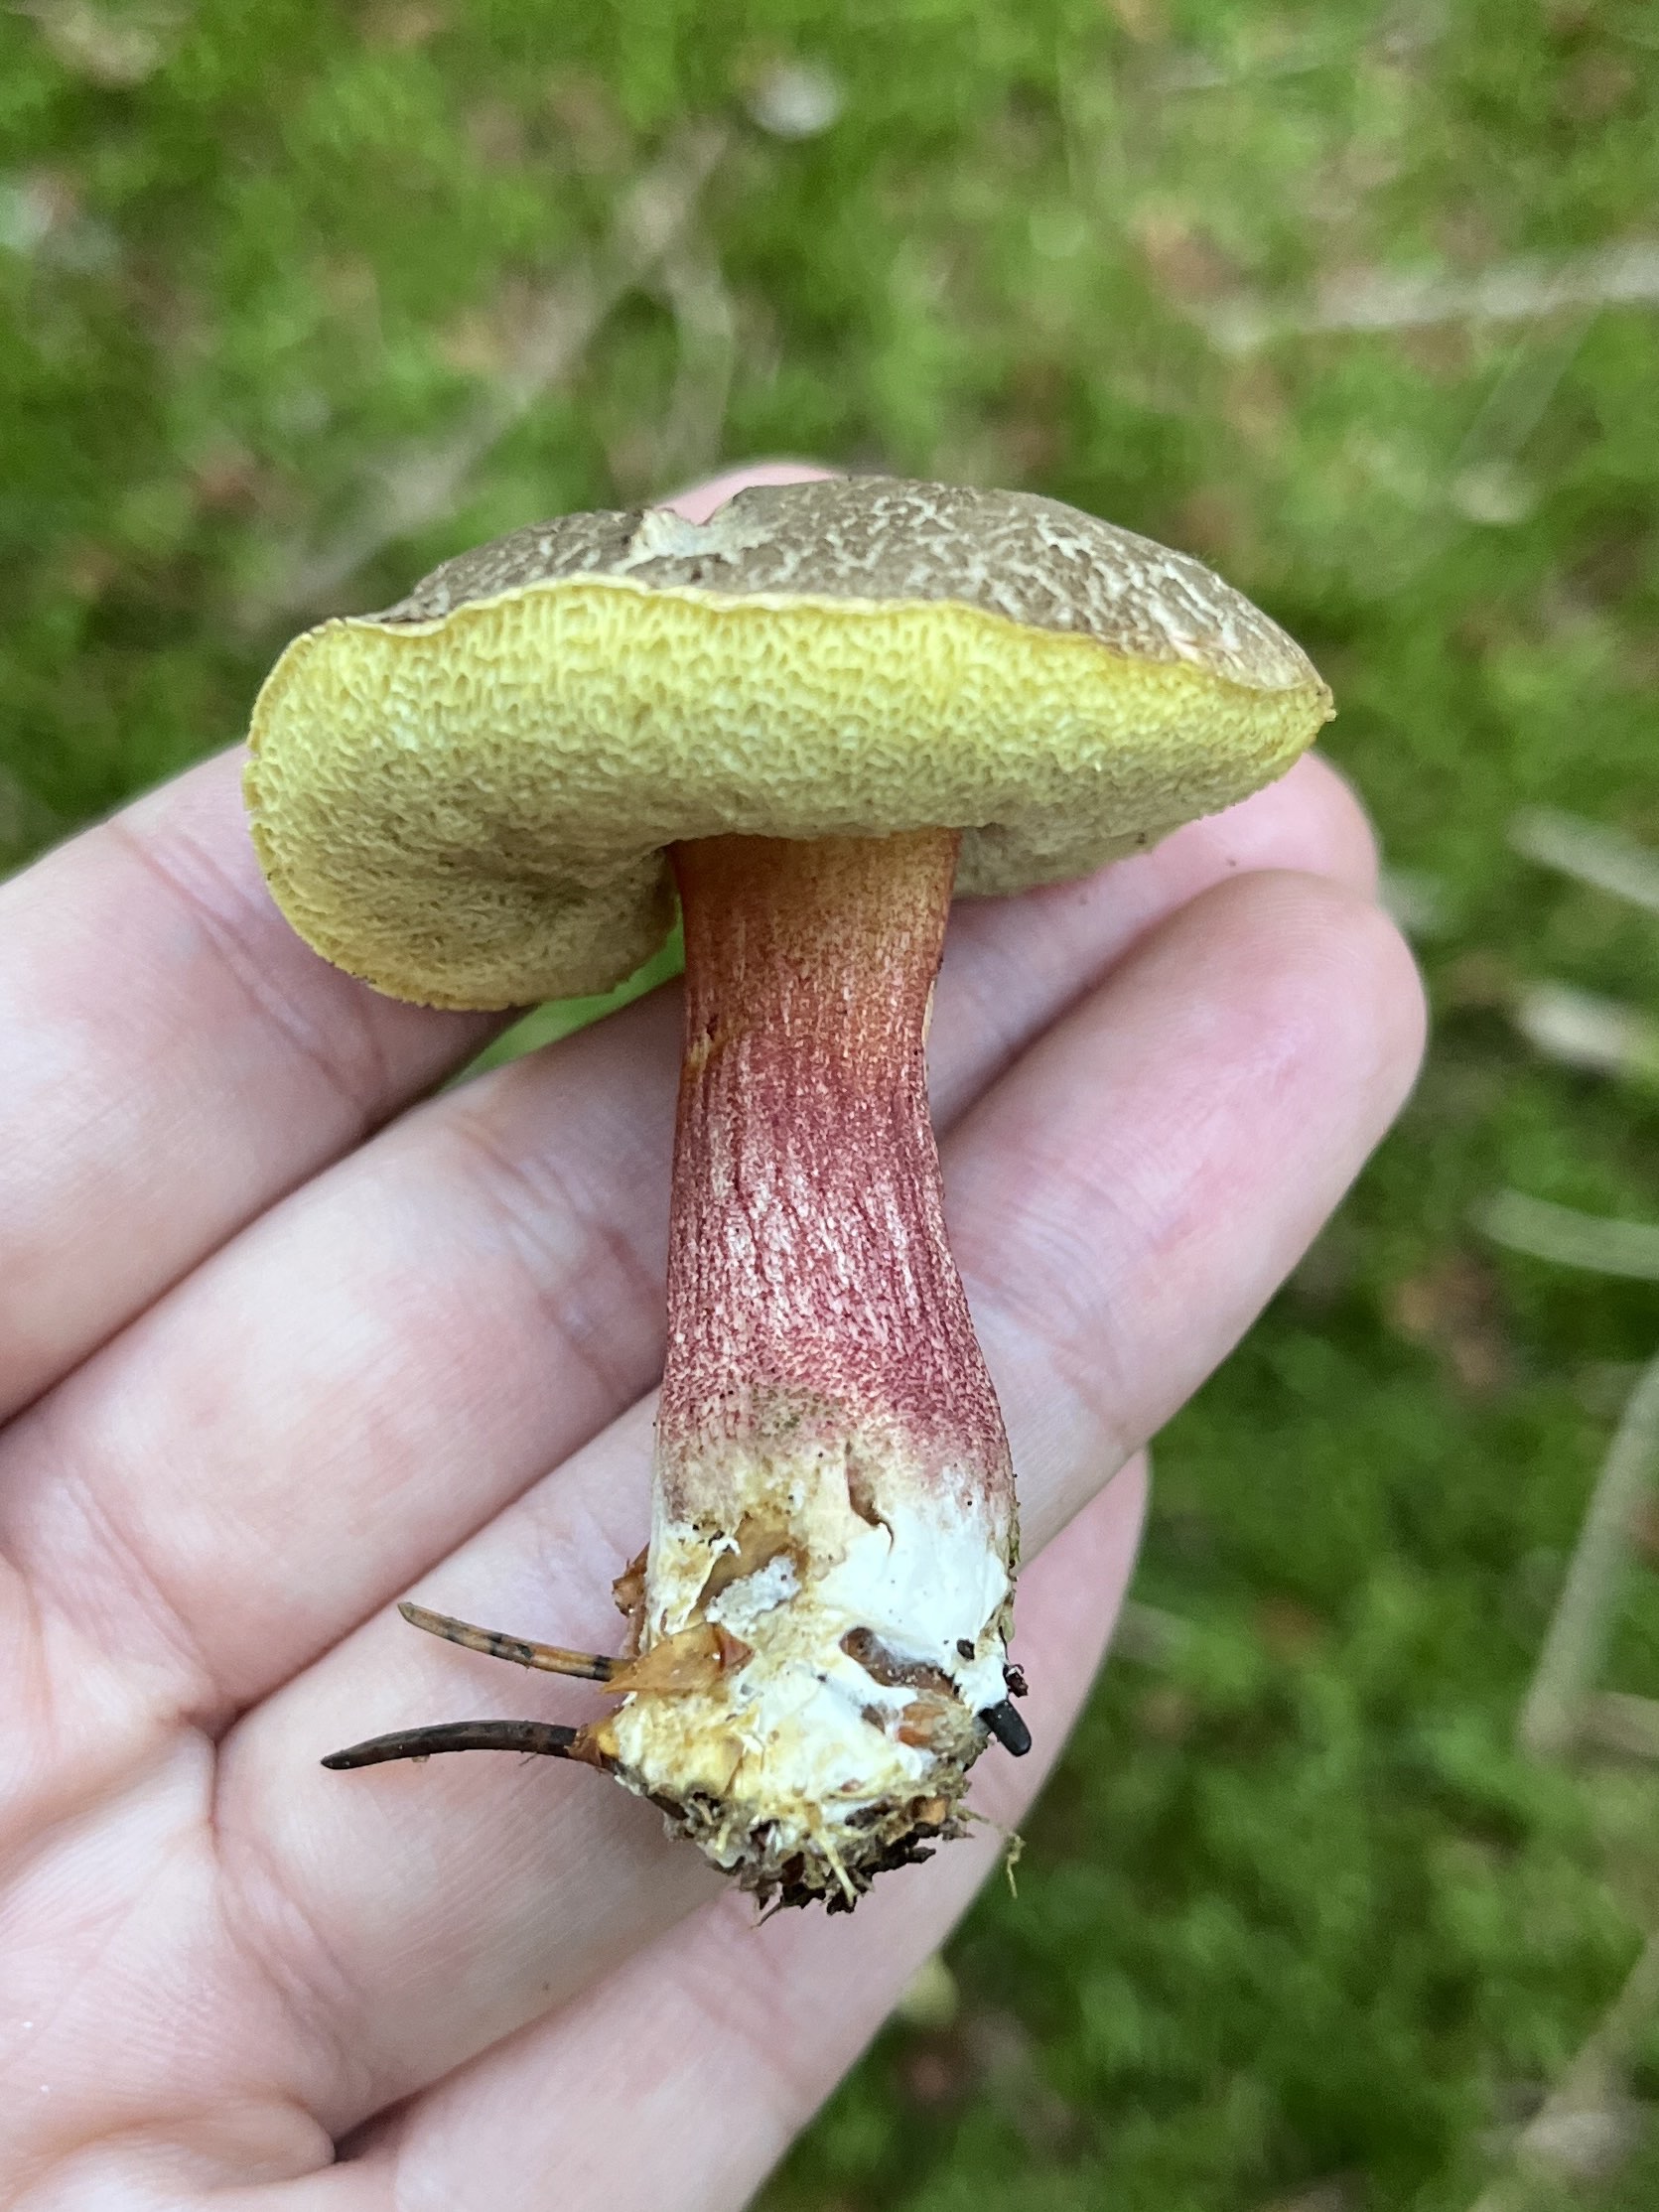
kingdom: Fungi
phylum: Basidiomycota
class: Agaricomycetes
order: Boletales
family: Boletaceae
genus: Xerocomellus
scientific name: Xerocomellus chrysenteron
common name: rødsprukken rørhat
